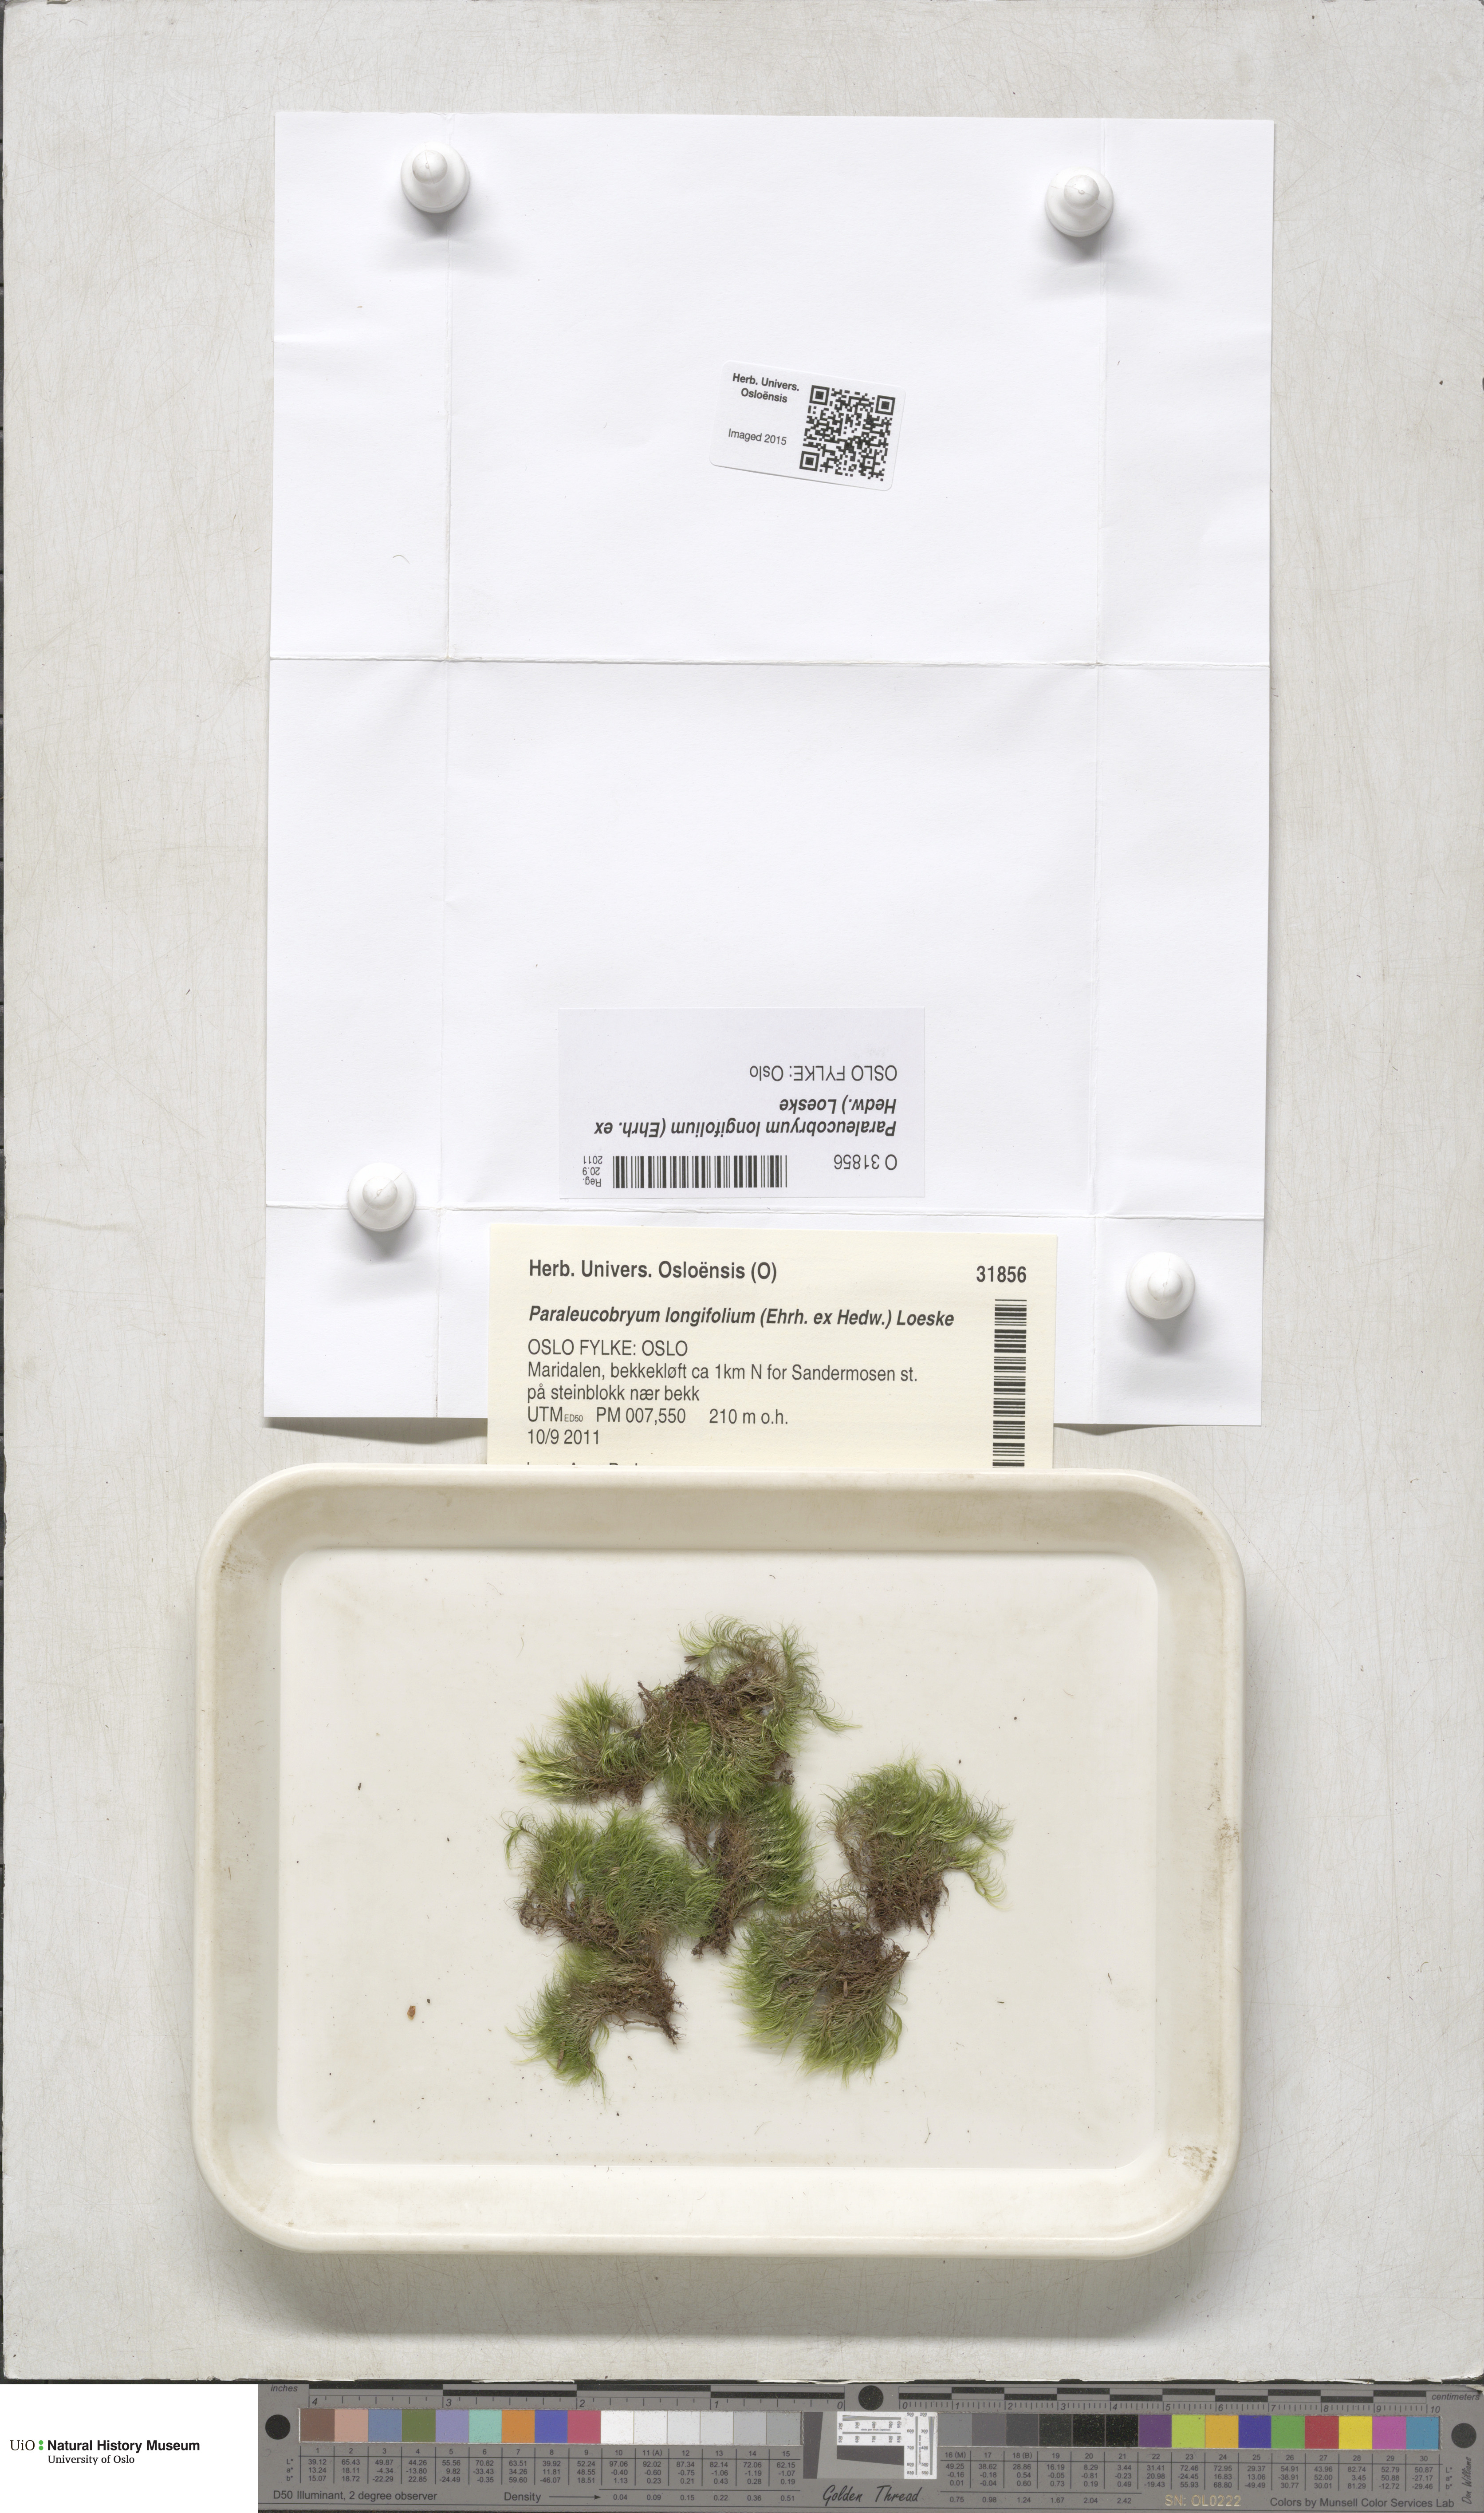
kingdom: Plantae
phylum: Bryophyta
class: Bryopsida
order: Dicranales
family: Dicranaceae
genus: Paraleucobryum
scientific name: Paraleucobryum longifolium
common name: Long-leaved fork moss
